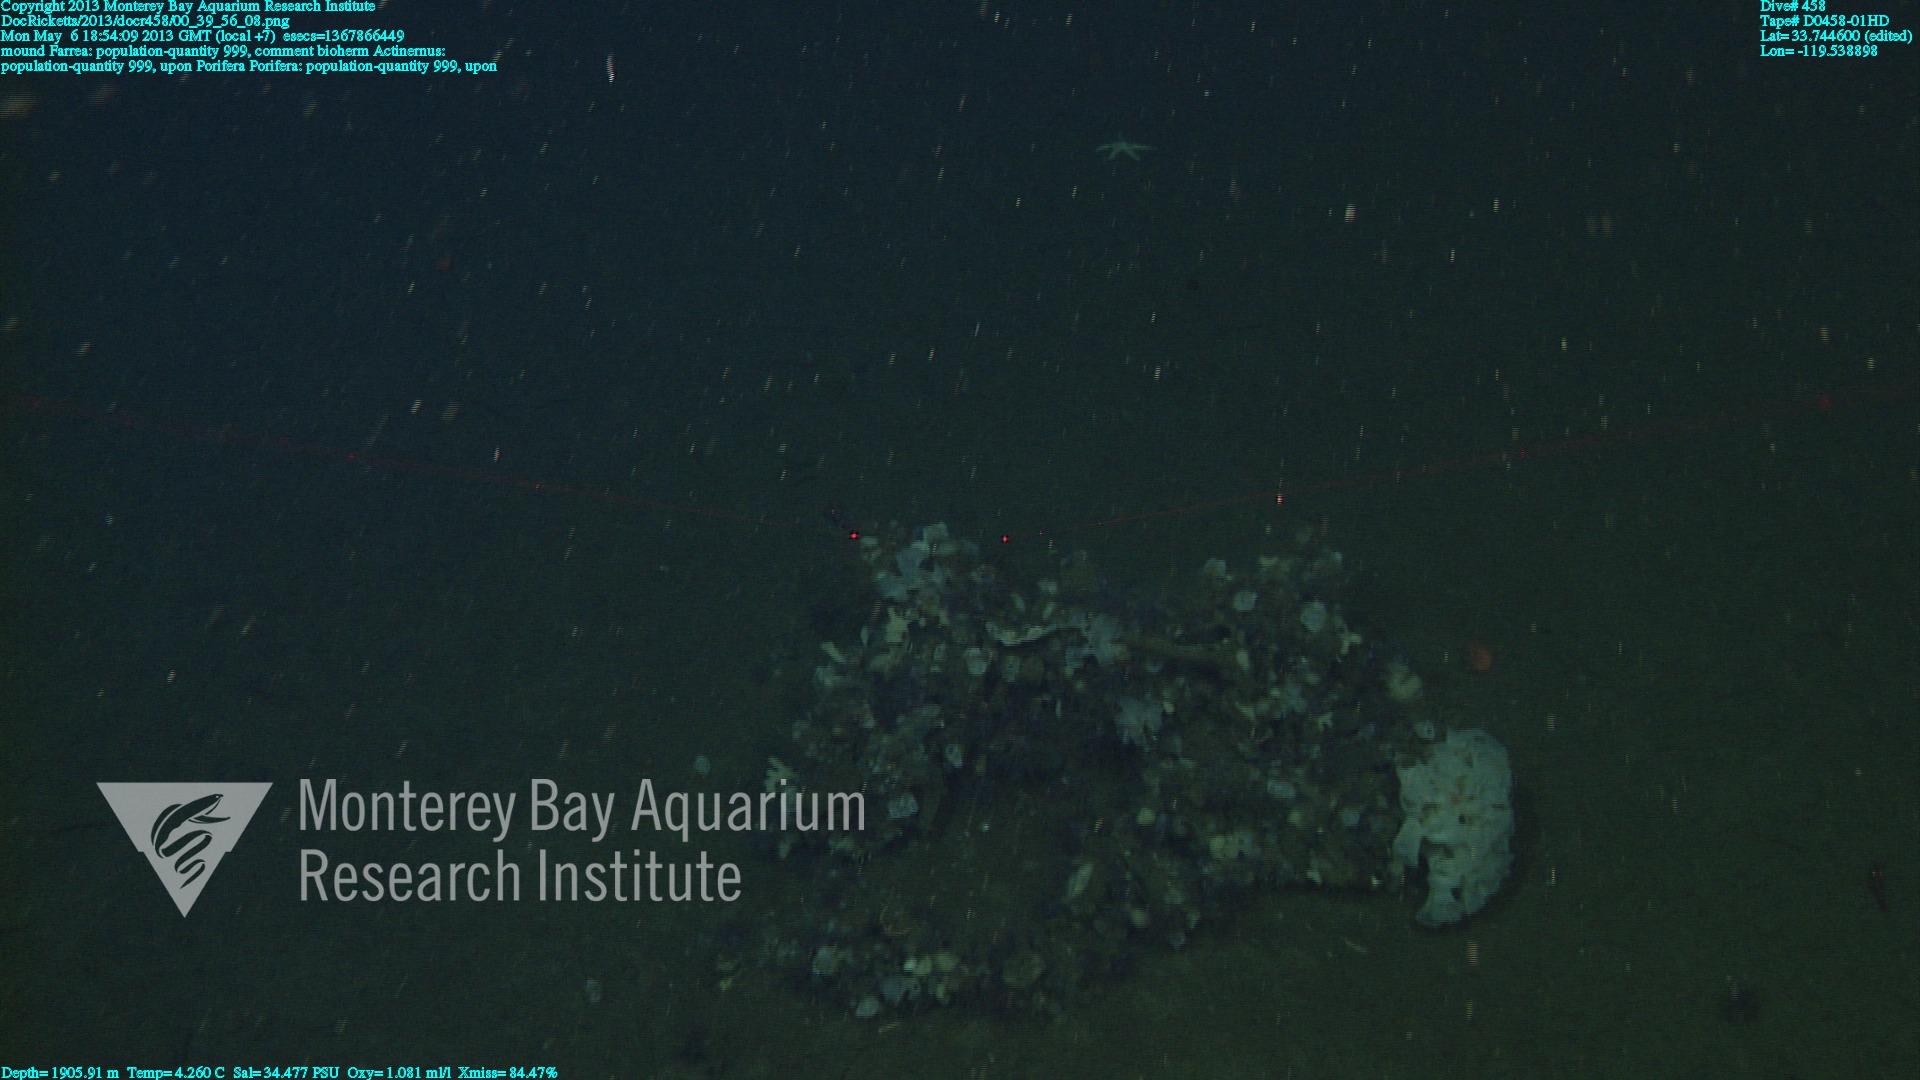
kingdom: Animalia
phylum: Porifera
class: Hexactinellida
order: Sceptrulophora
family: Farreidae
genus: Farrea
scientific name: Farrea
